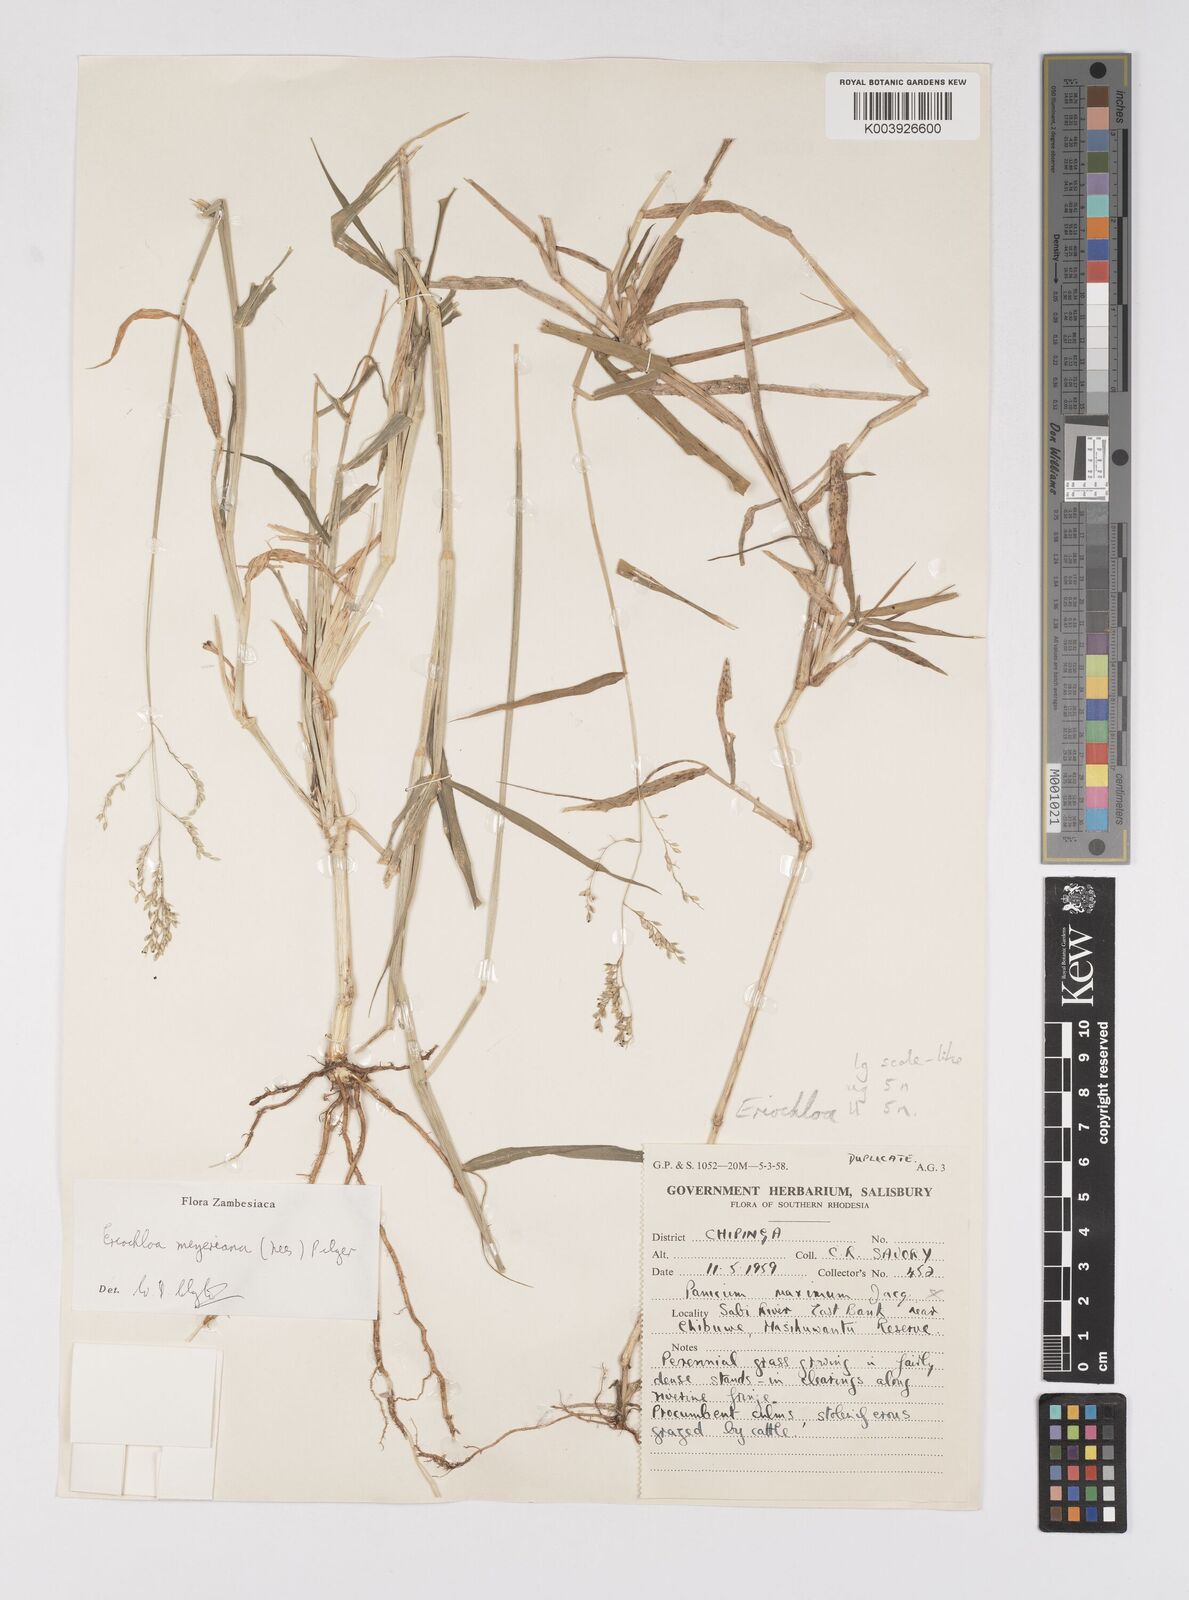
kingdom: Plantae
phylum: Tracheophyta
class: Liliopsida
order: Poales
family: Poaceae
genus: Eriochloa
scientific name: Eriochloa meyeriana
